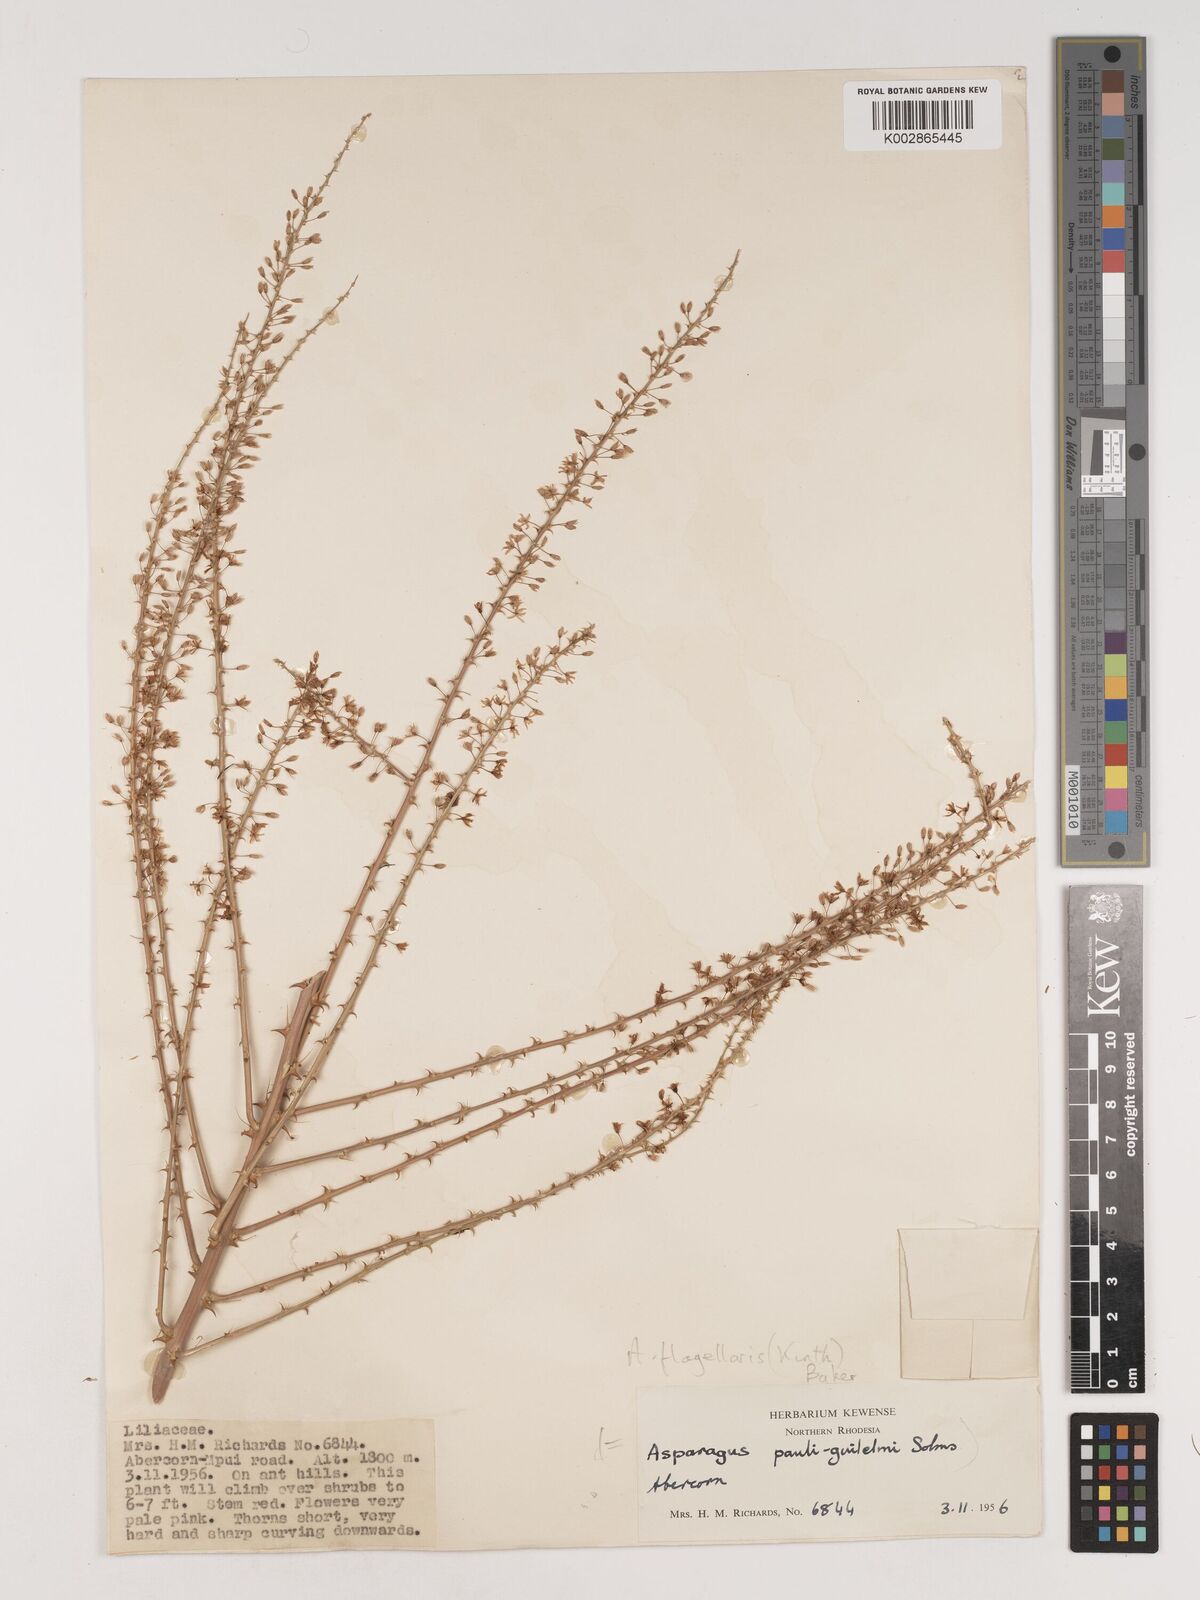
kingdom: Plantae
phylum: Tracheophyta
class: Liliopsida
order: Asparagales
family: Asparagaceae
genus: Asparagus
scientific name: Asparagus flagellaris
